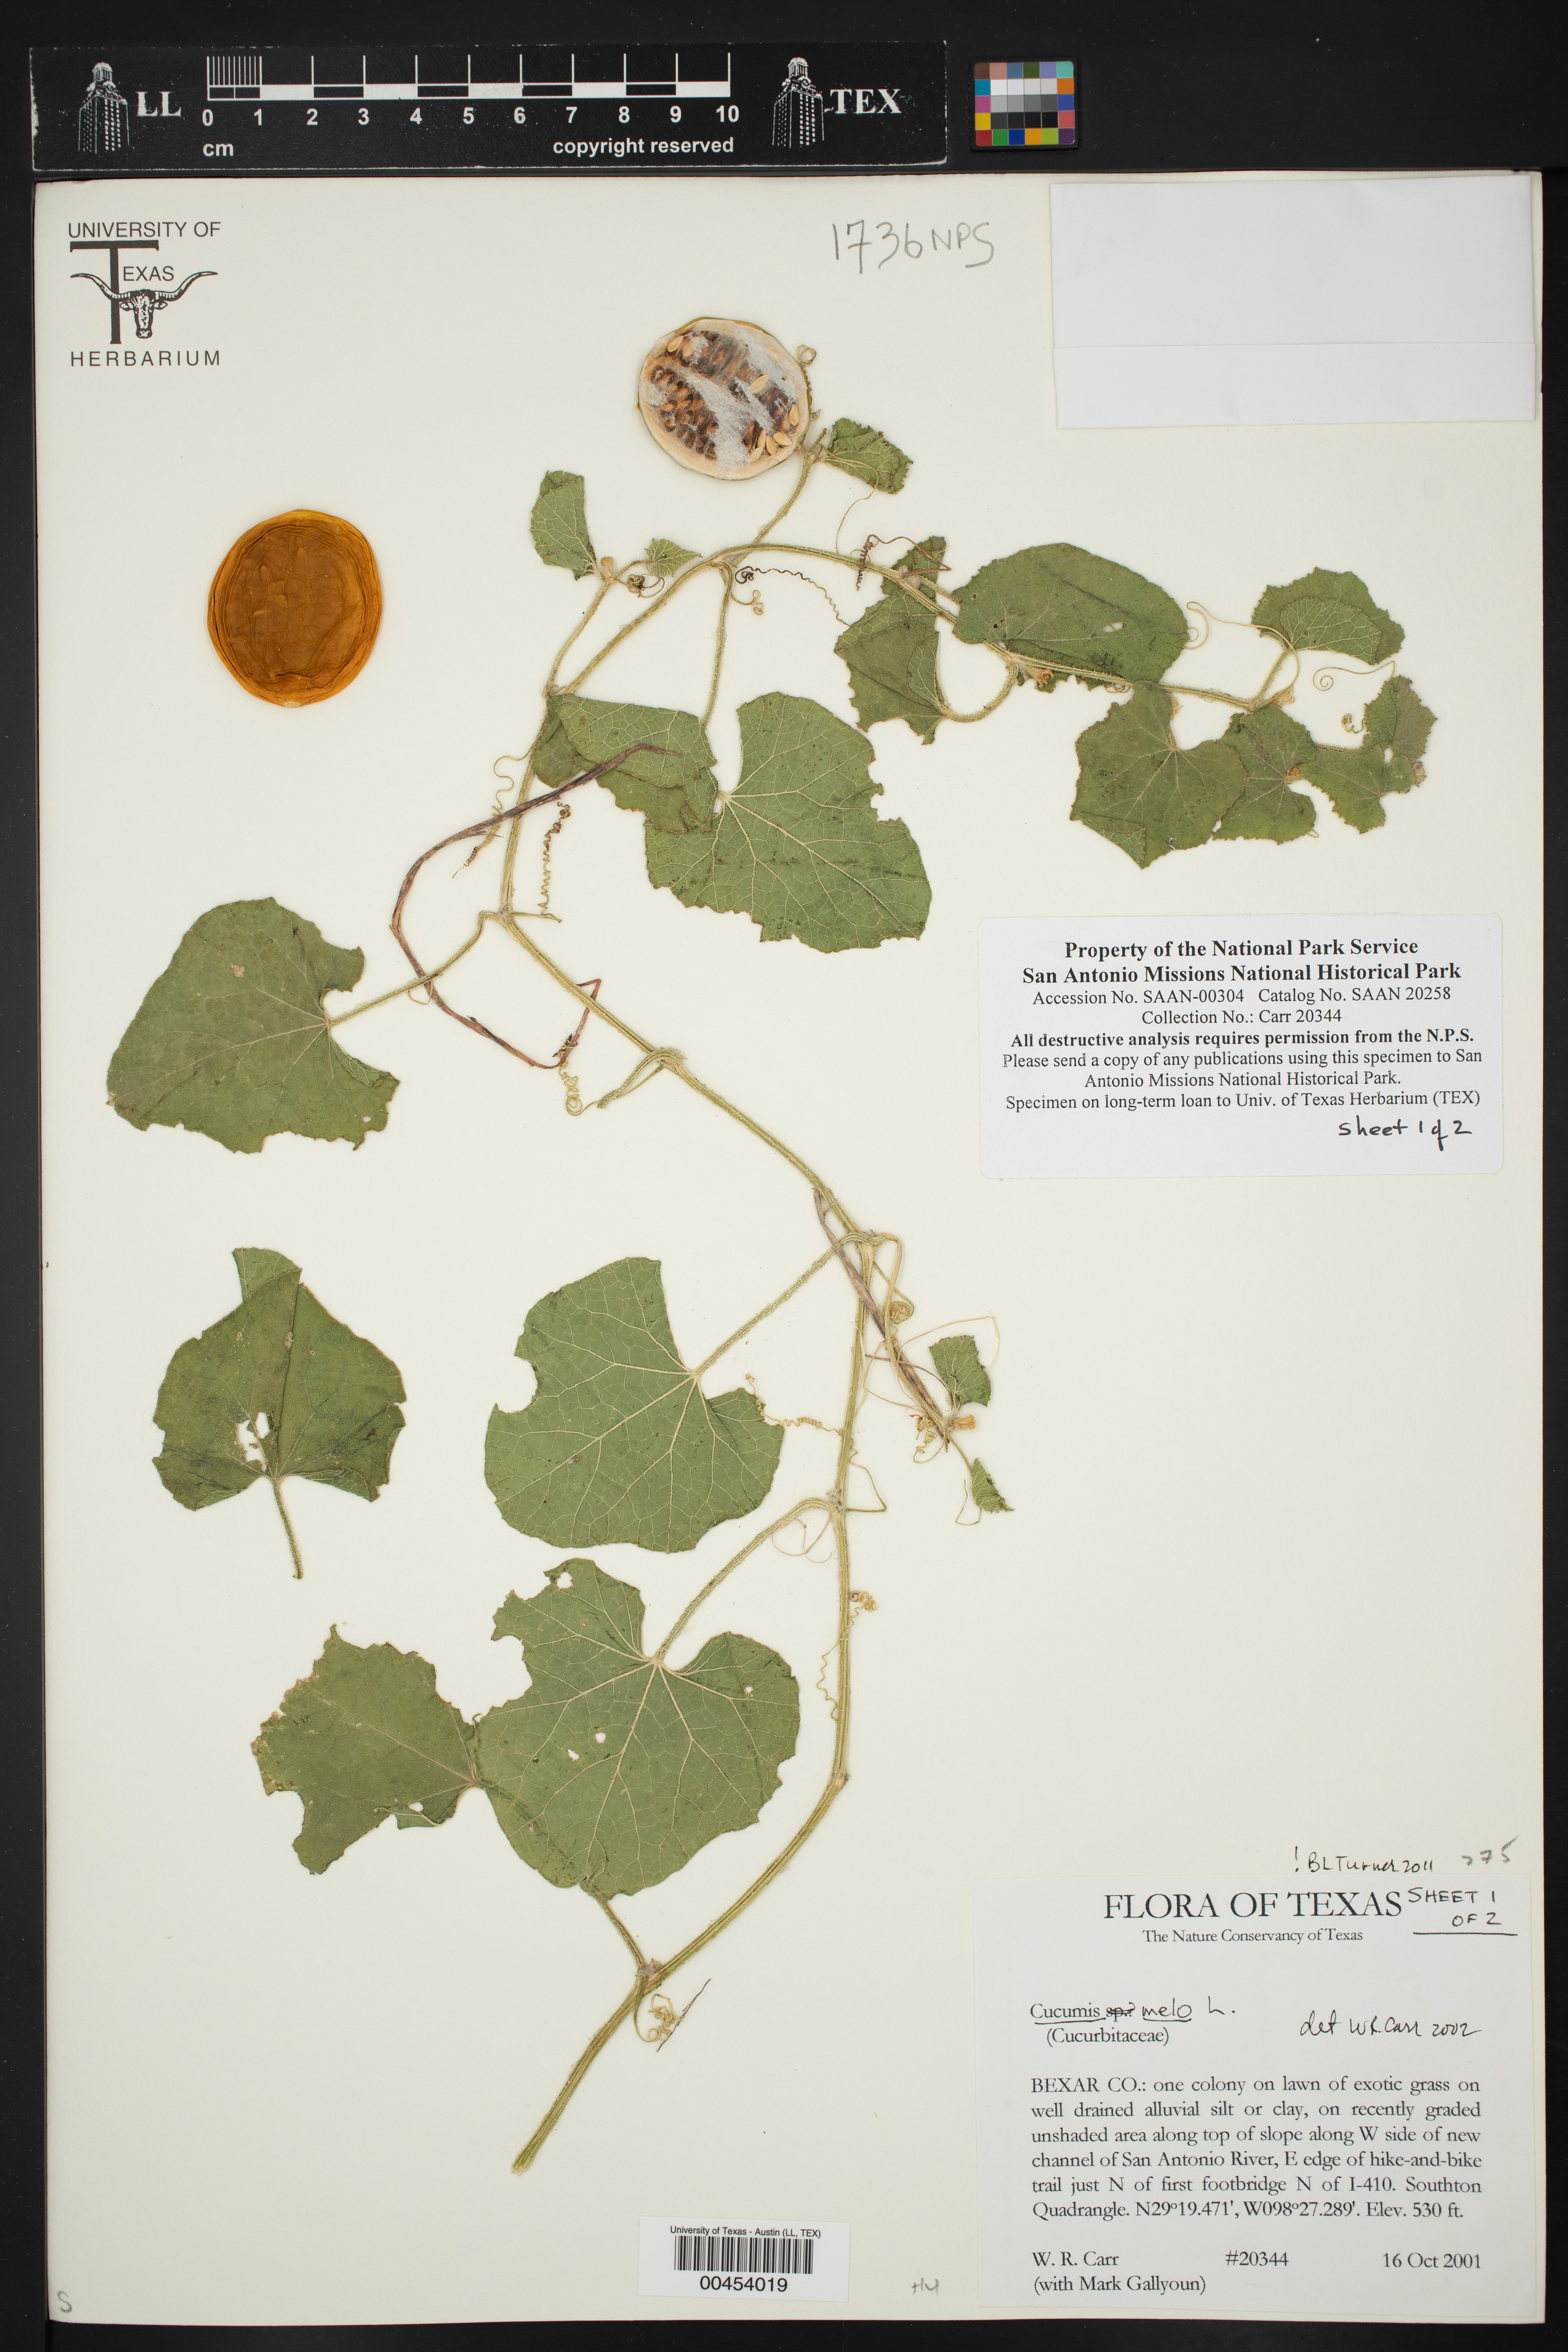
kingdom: Plantae
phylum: Tracheophyta
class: Magnoliopsida
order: Cucurbitales
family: Cucurbitaceae
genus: Cucumis
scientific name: Cucumis melo
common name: Melon
